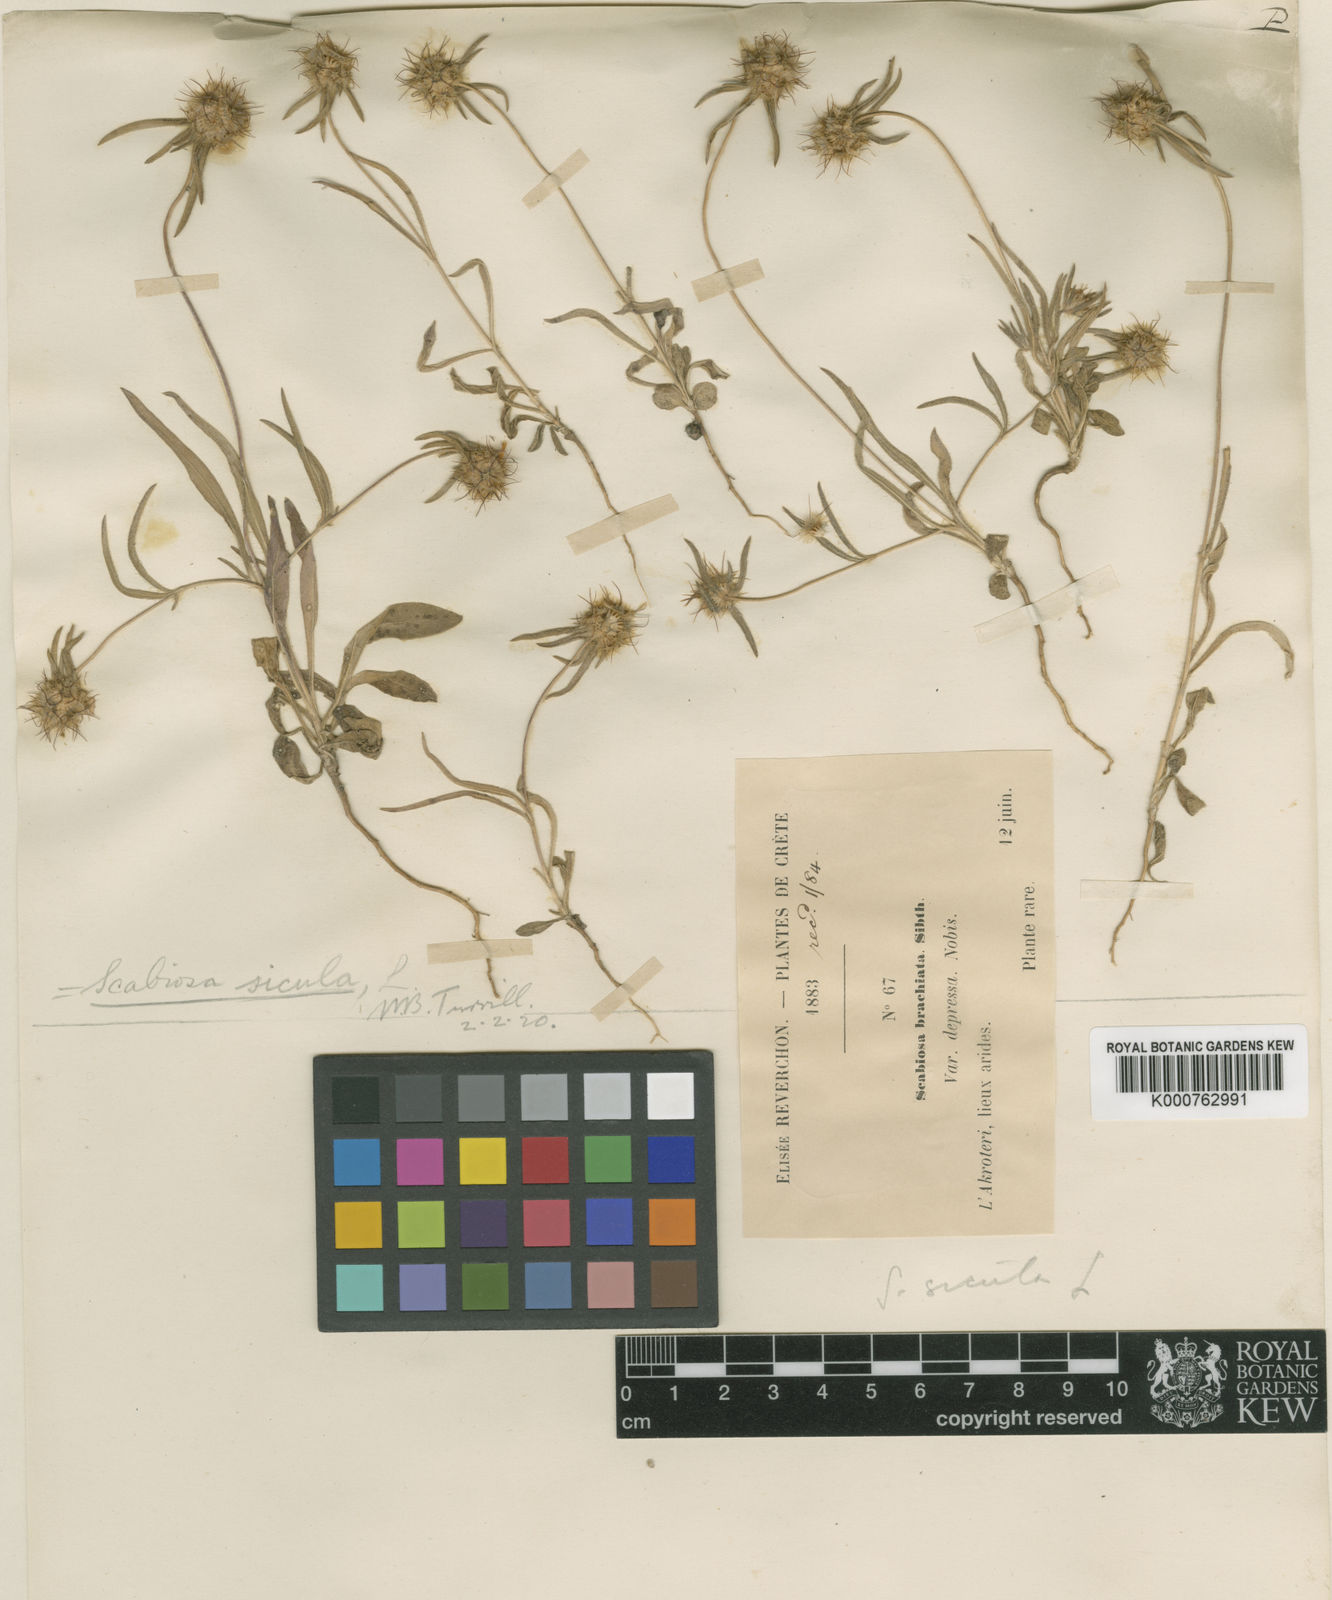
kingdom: Plantae
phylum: Tracheophyta
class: Magnoliopsida
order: Dipsacales
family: Caprifoliaceae
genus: Lomelosia
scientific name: Lomelosia divaricata
